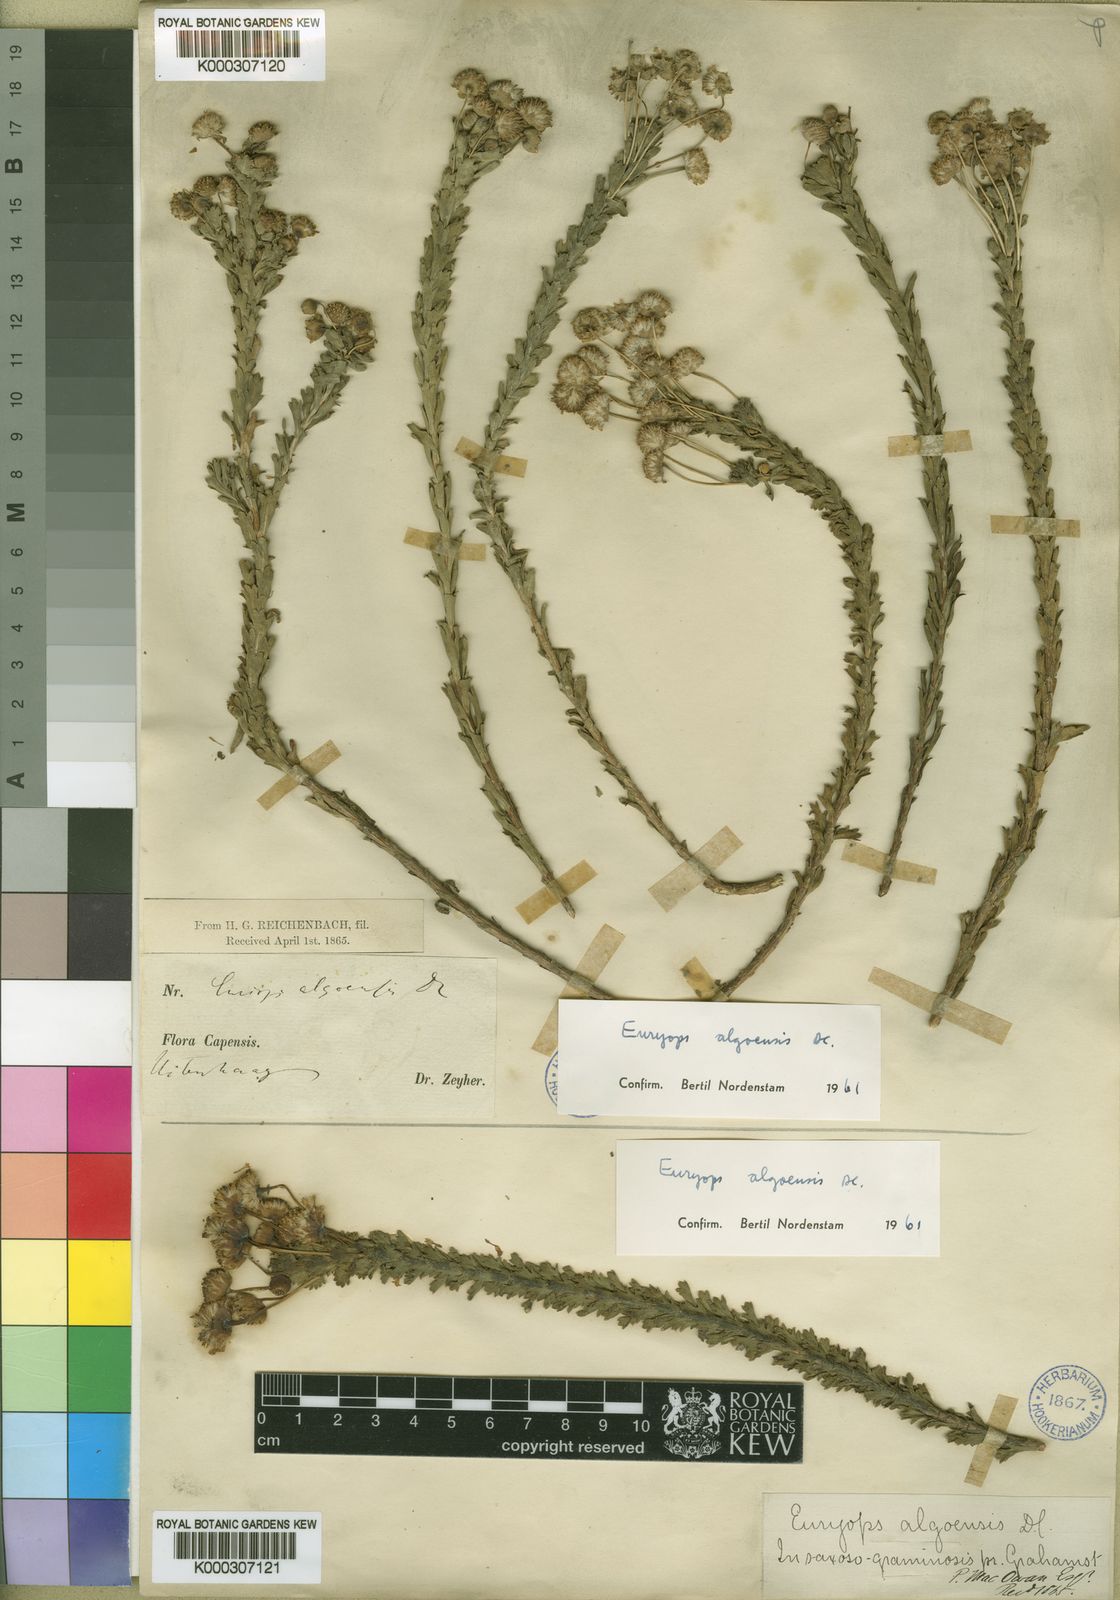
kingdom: Plantae
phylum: Tracheophyta
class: Magnoliopsida
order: Asterales
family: Asteraceae
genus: Euryops
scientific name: Euryops algoensis
